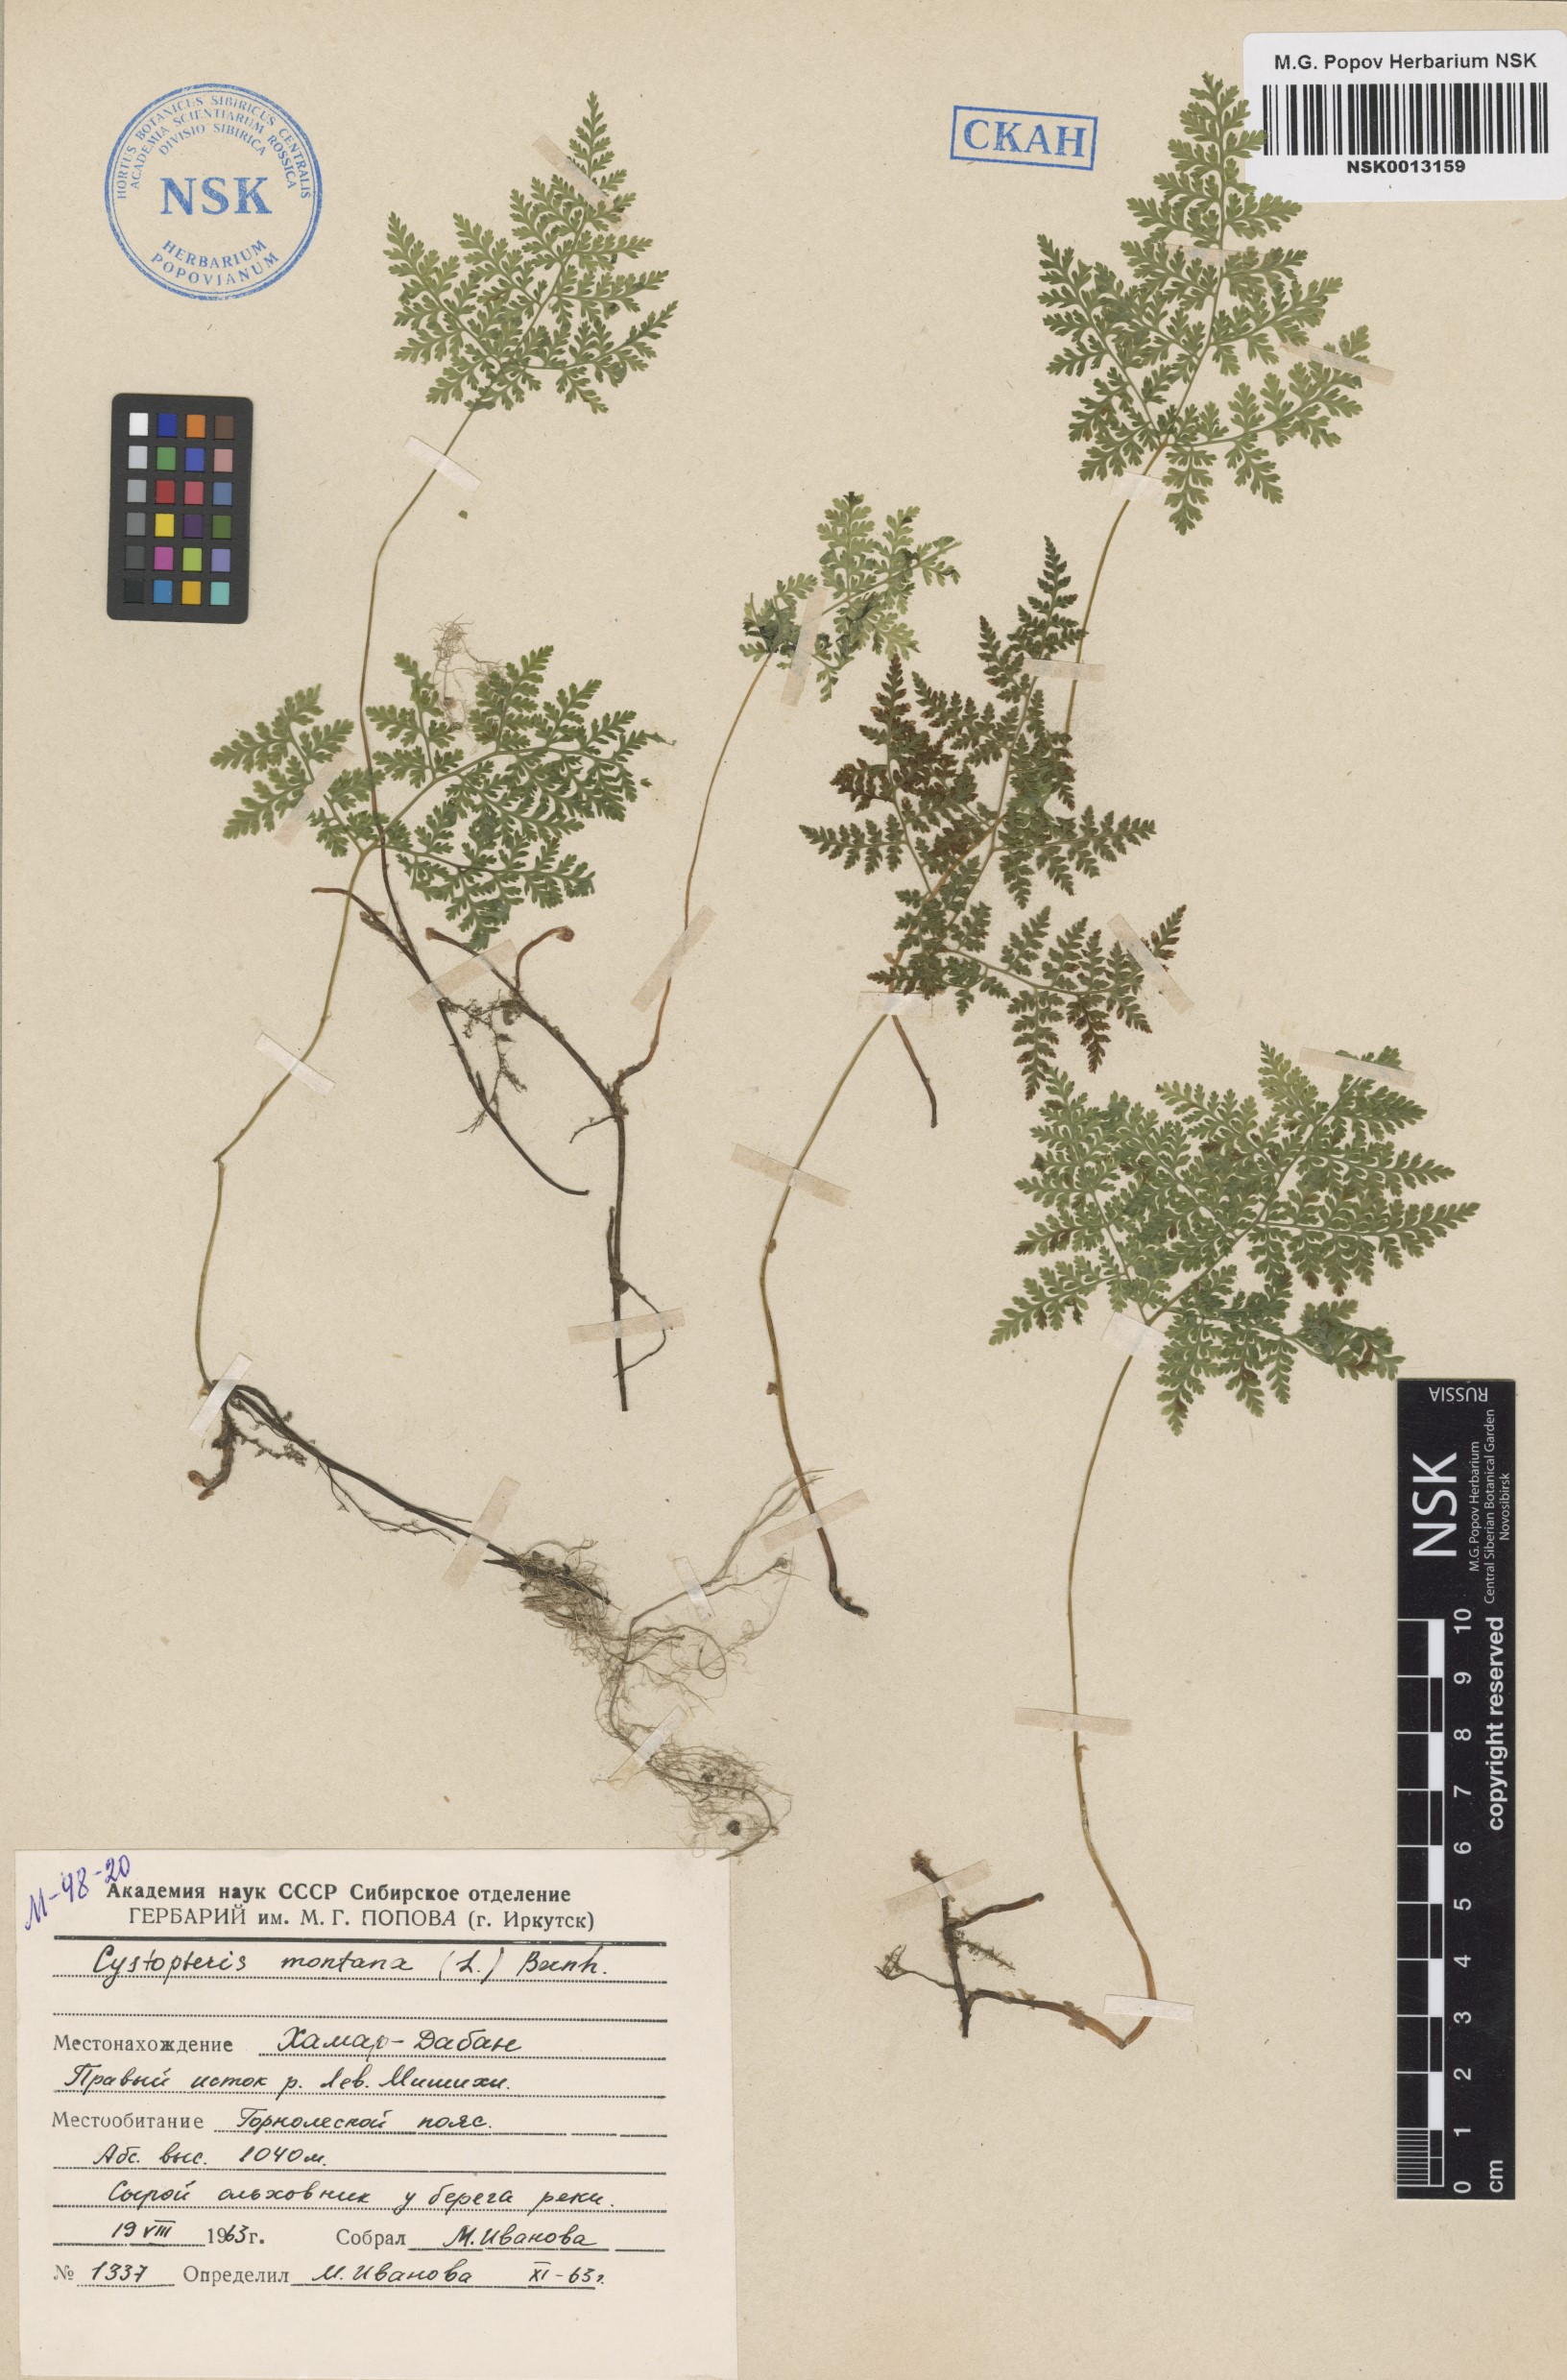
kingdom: Plantae
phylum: Tracheophyta
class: Polypodiopsida
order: Polypodiales
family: Cystopteridaceae
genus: Cystopteris
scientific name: Cystopteris montana
